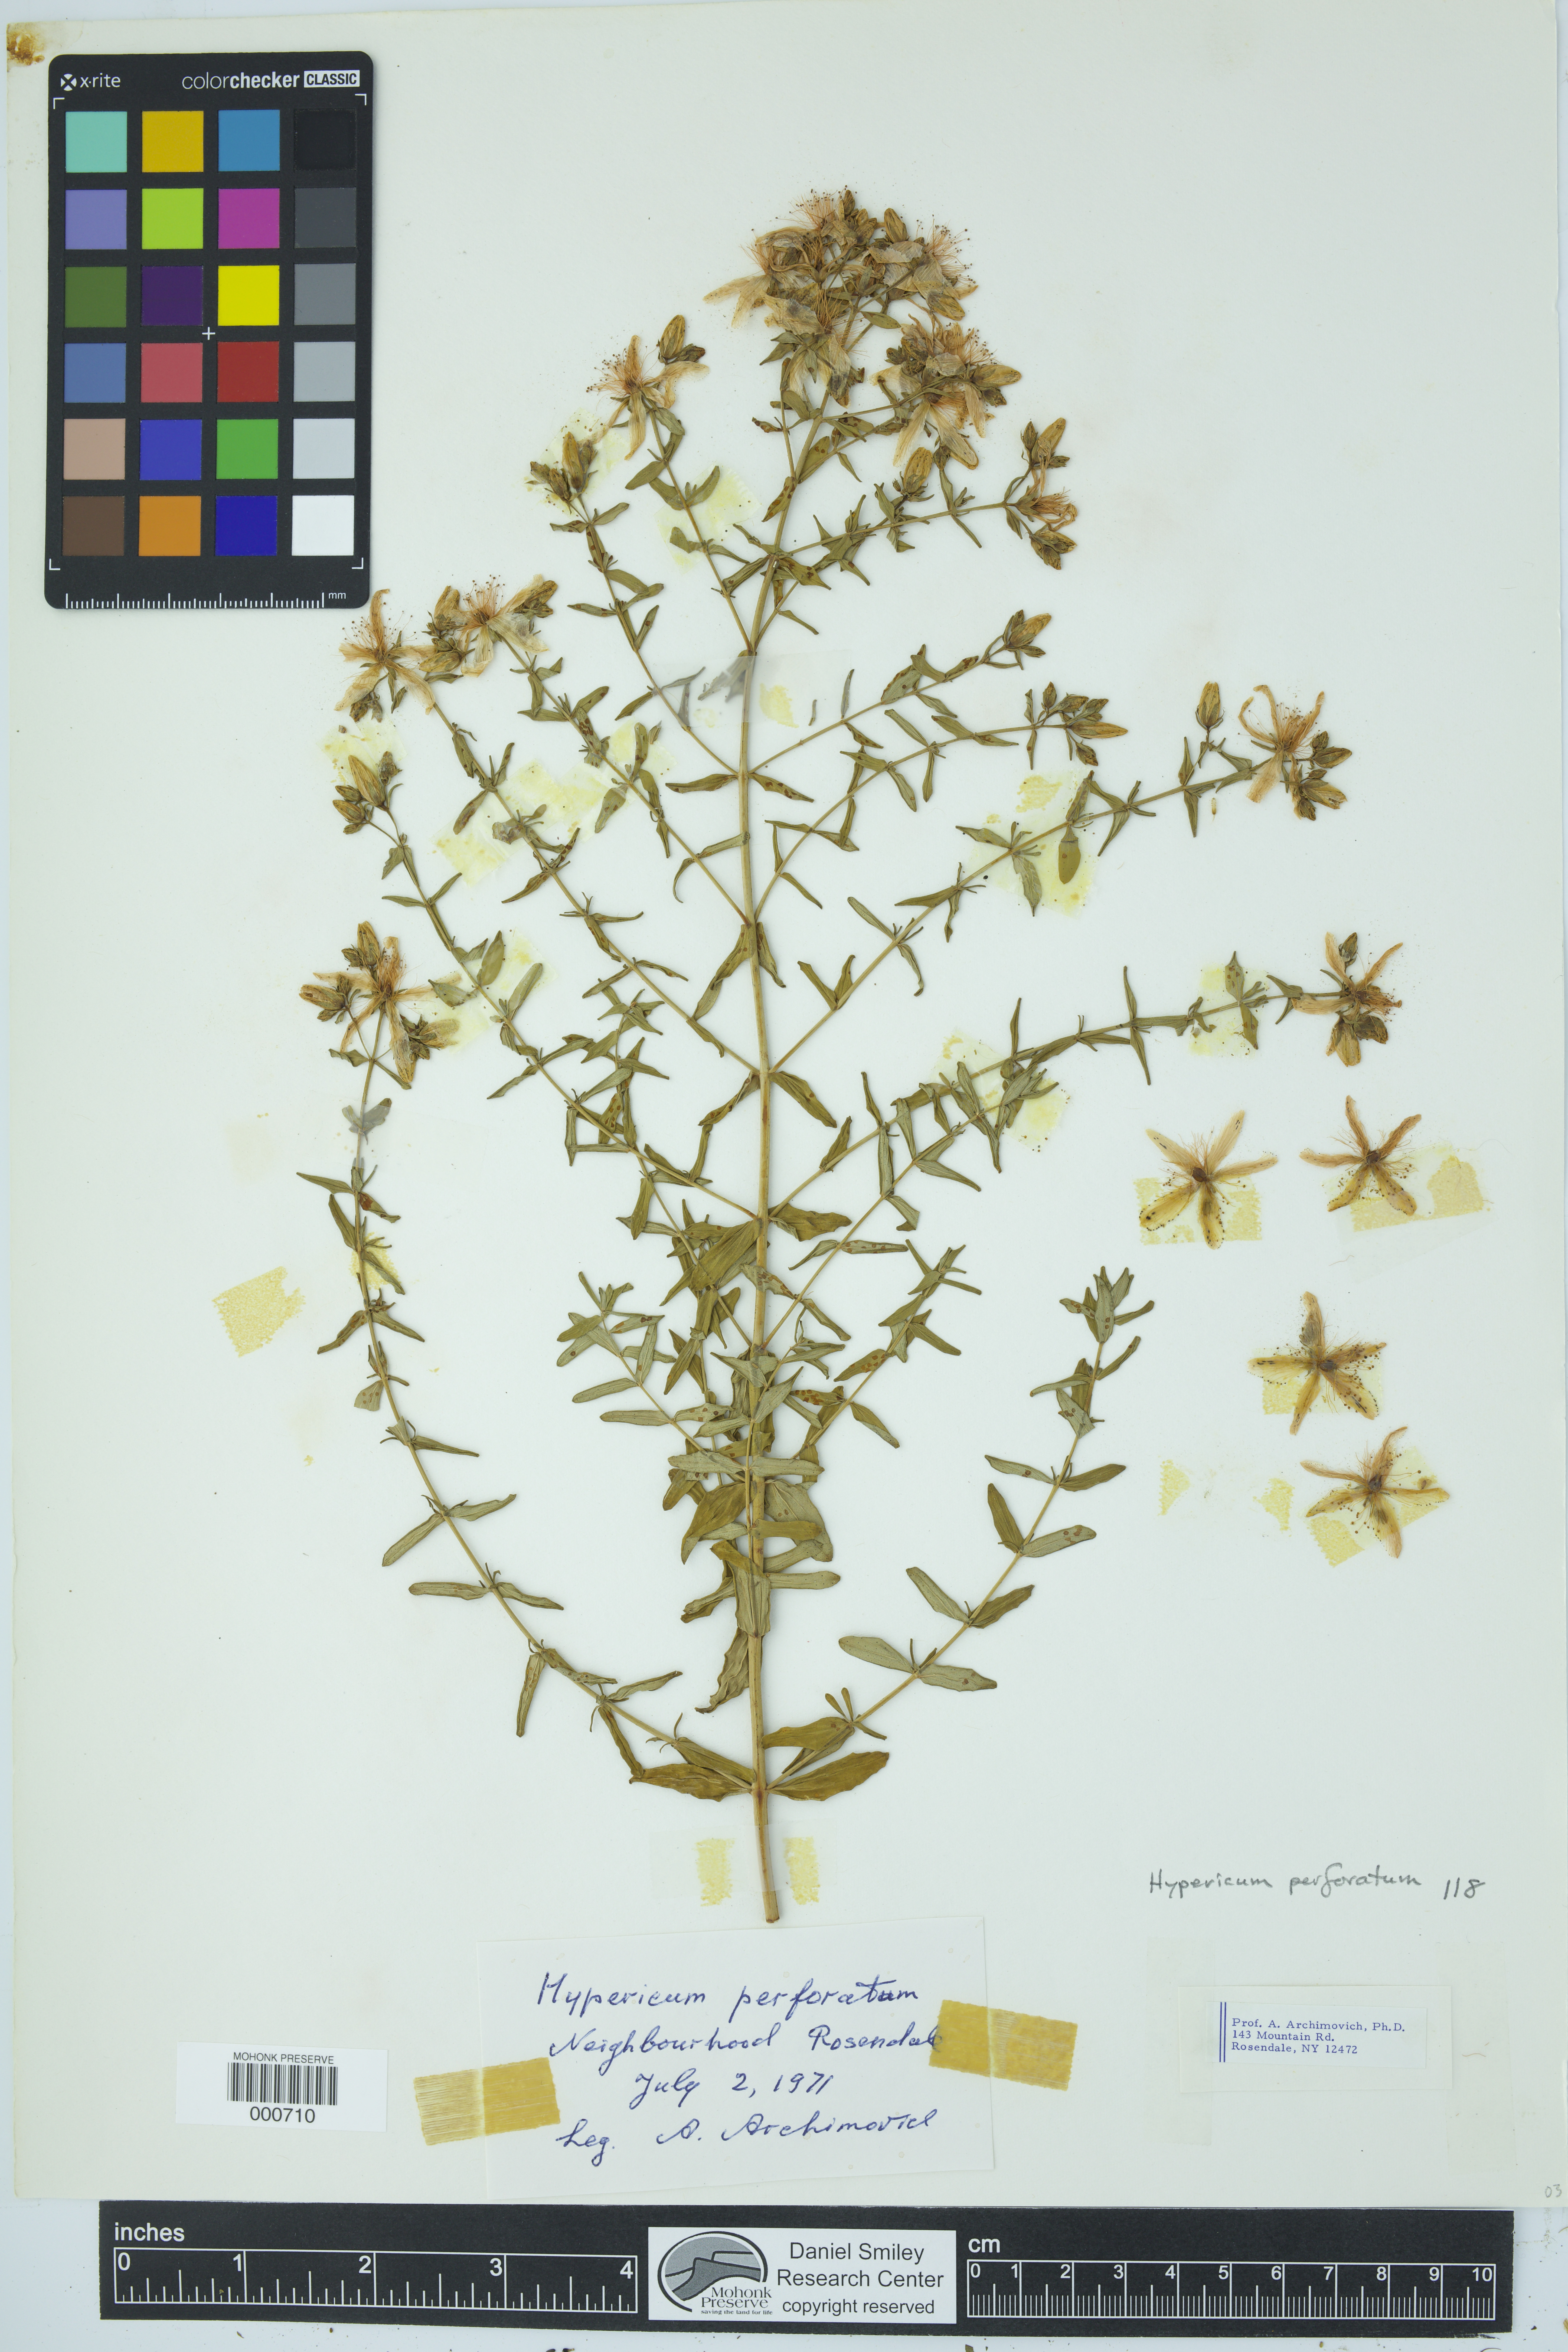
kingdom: Plantae
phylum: Tracheophyta
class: Magnoliopsida
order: Malpighiales
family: Hypericaceae
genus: Hypericum
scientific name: Hypericum perforatum
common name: Common st. johnswort
